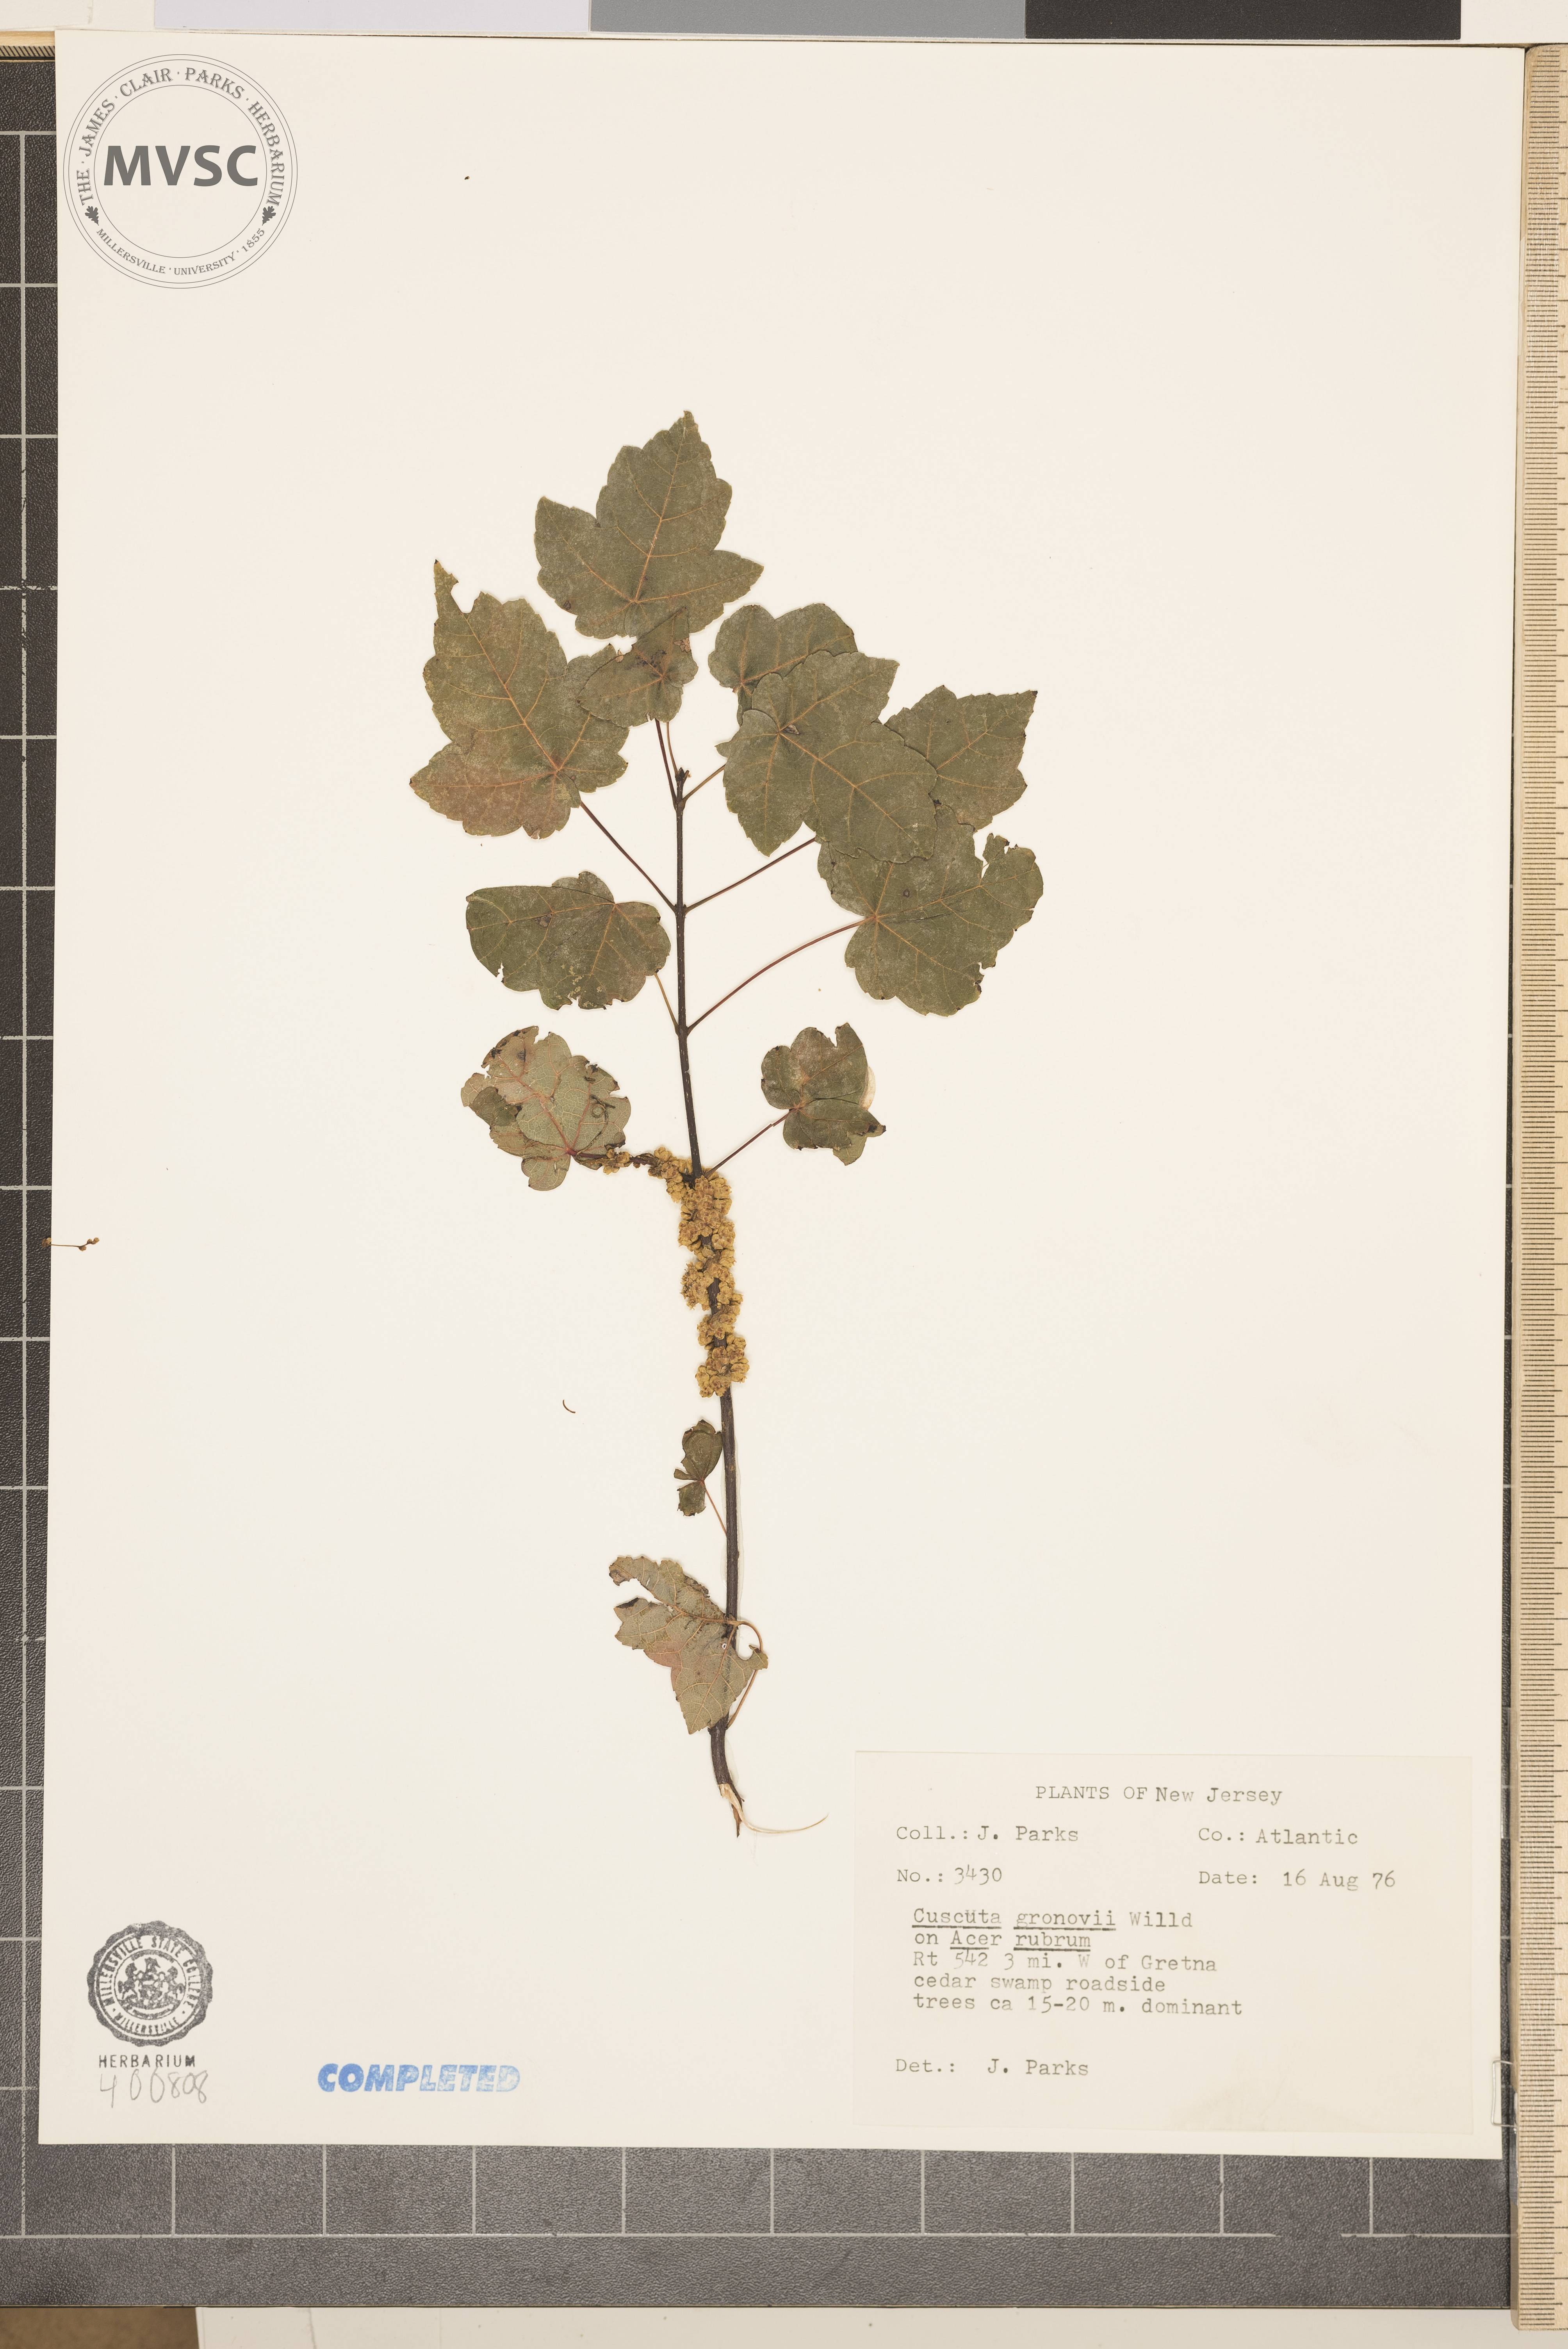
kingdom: Plantae
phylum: Tracheophyta
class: Magnoliopsida
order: Solanales
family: Convolvulaceae
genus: Cuscuta
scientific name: Cuscuta gronovii
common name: dodder
